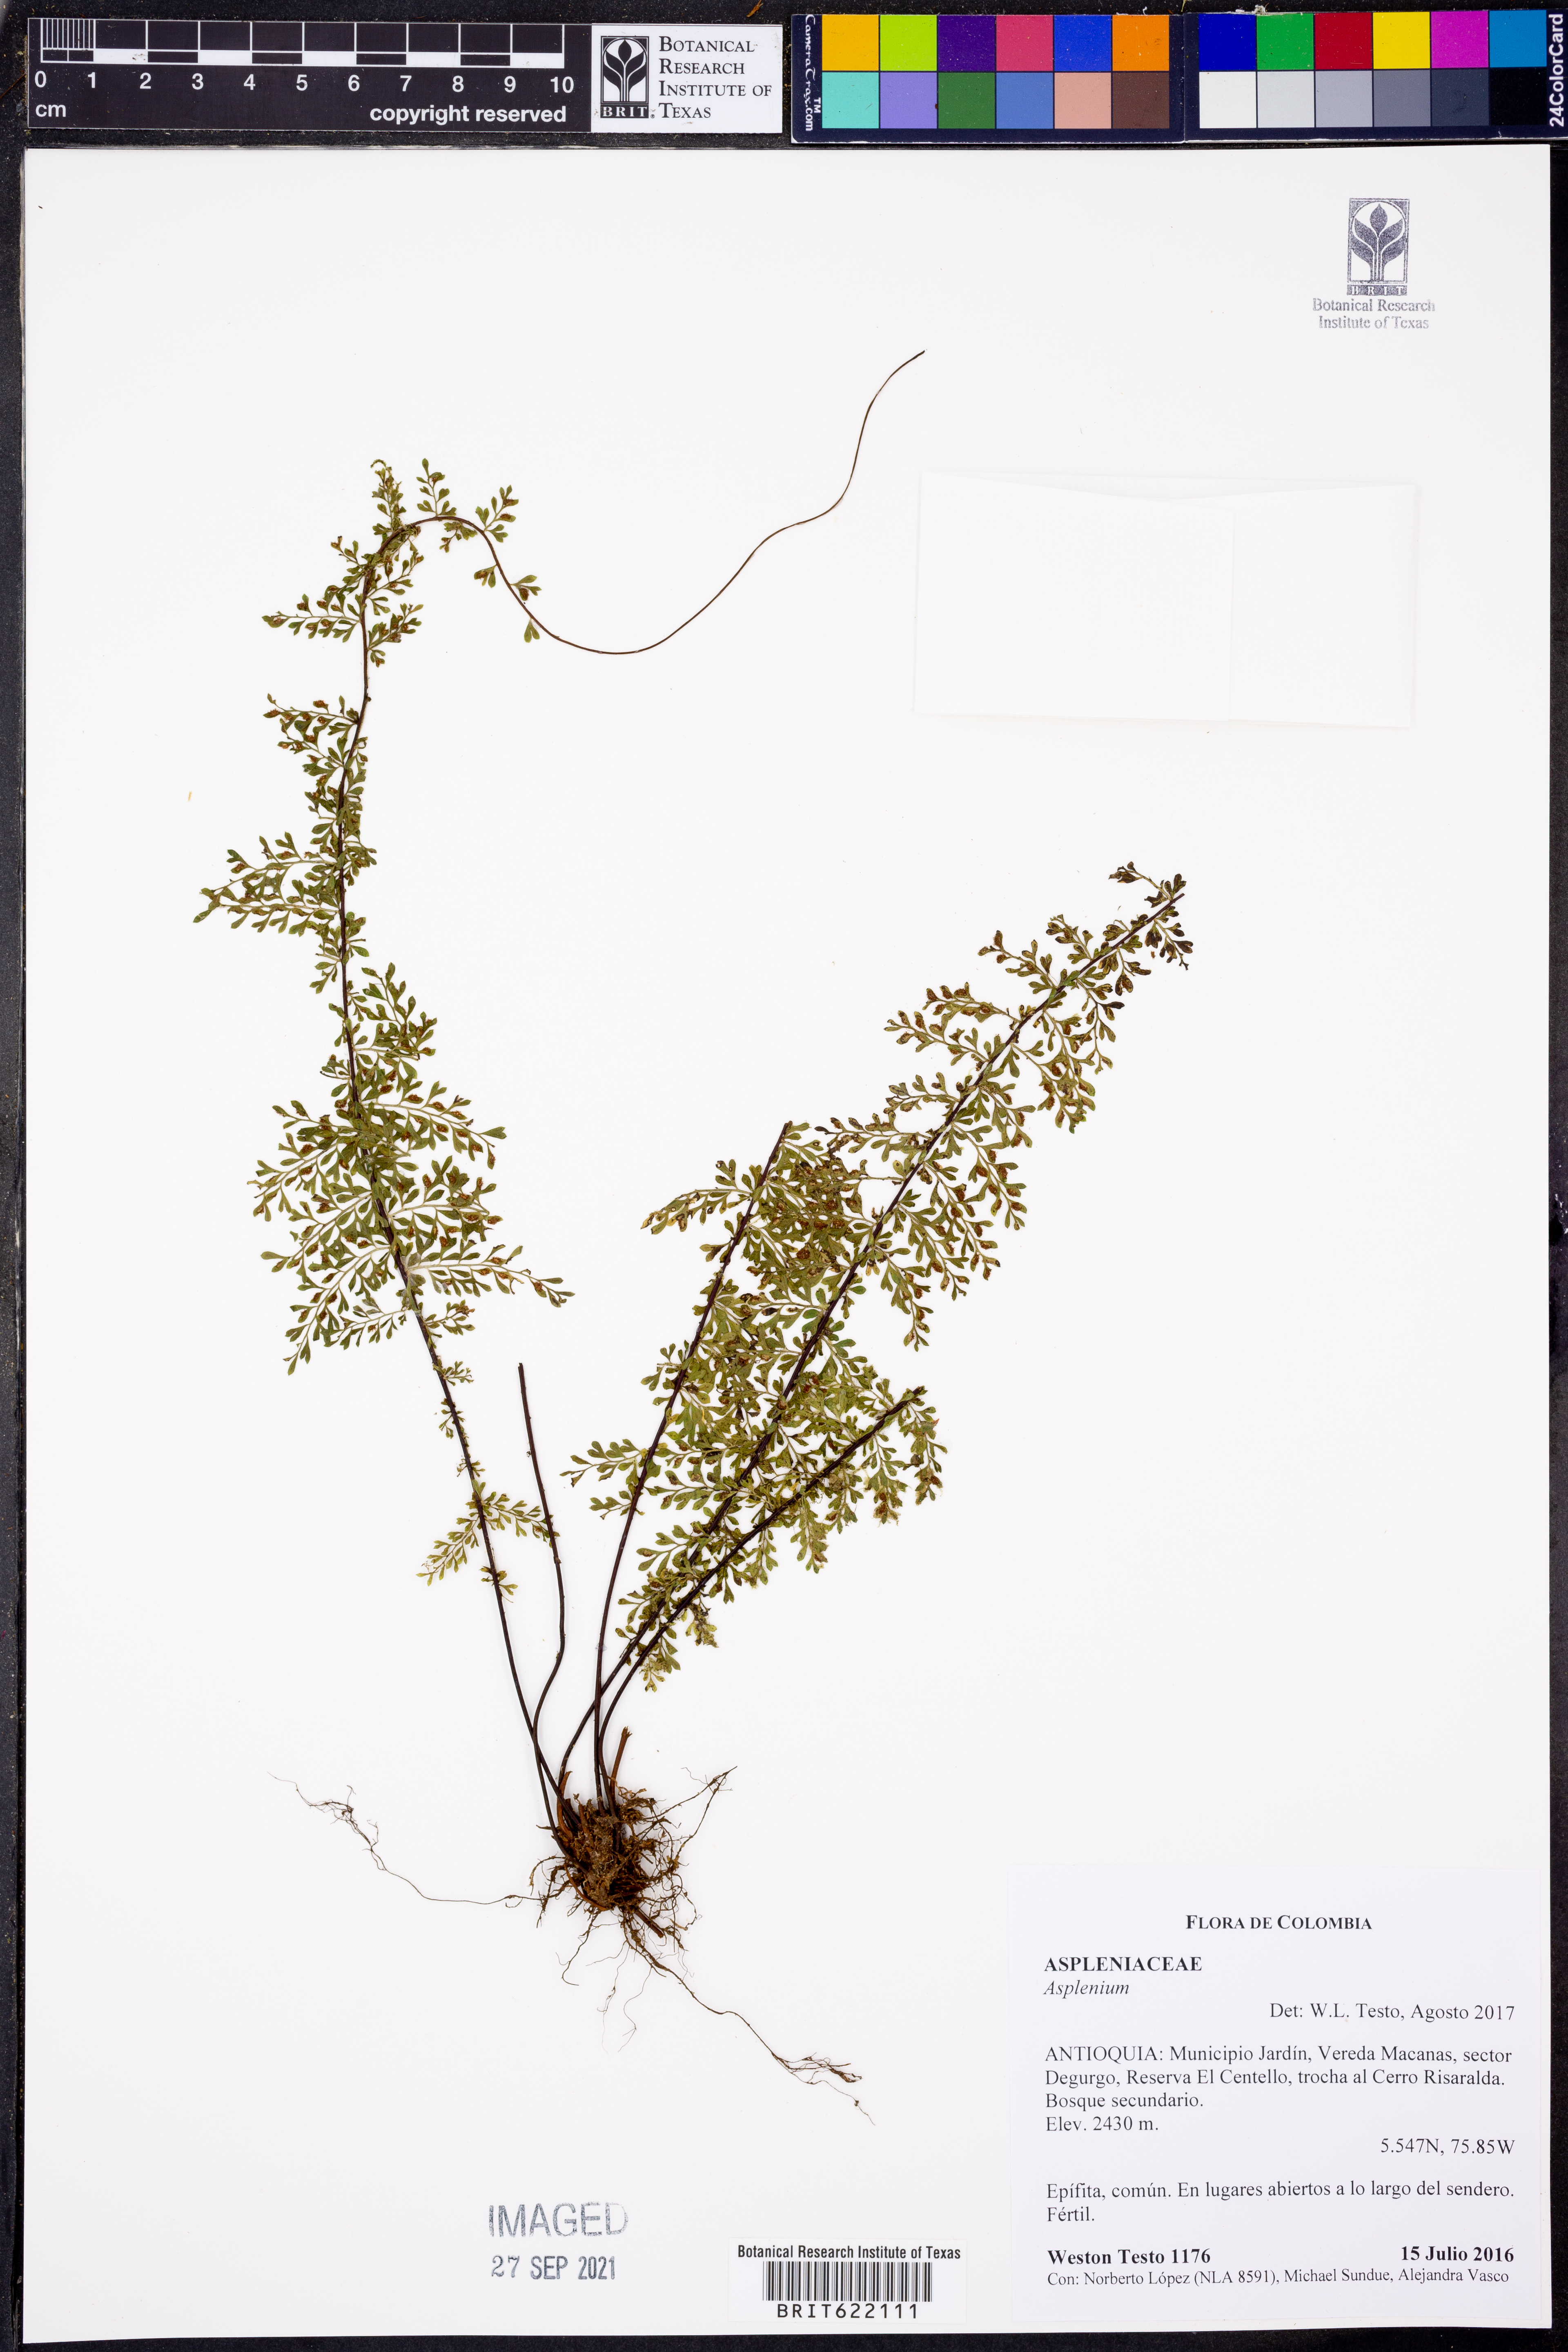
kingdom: Plantae
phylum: Tracheophyta
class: Polypodiopsida
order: Polypodiales
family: Aspleniaceae
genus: Asplenium
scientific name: Asplenium
